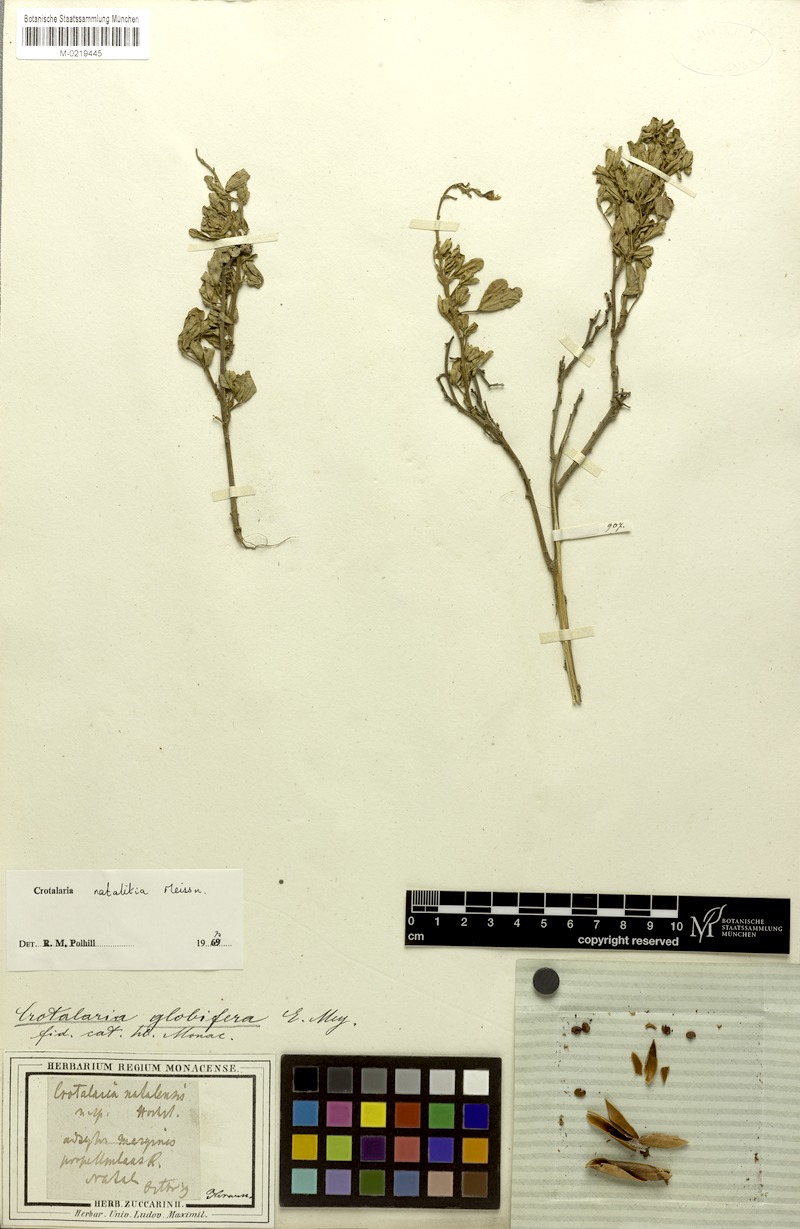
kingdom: Plantae
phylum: Tracheophyta
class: Magnoliopsida
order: Fabales
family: Fabaceae
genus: Crotalaria
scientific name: Crotalaria natalitia
